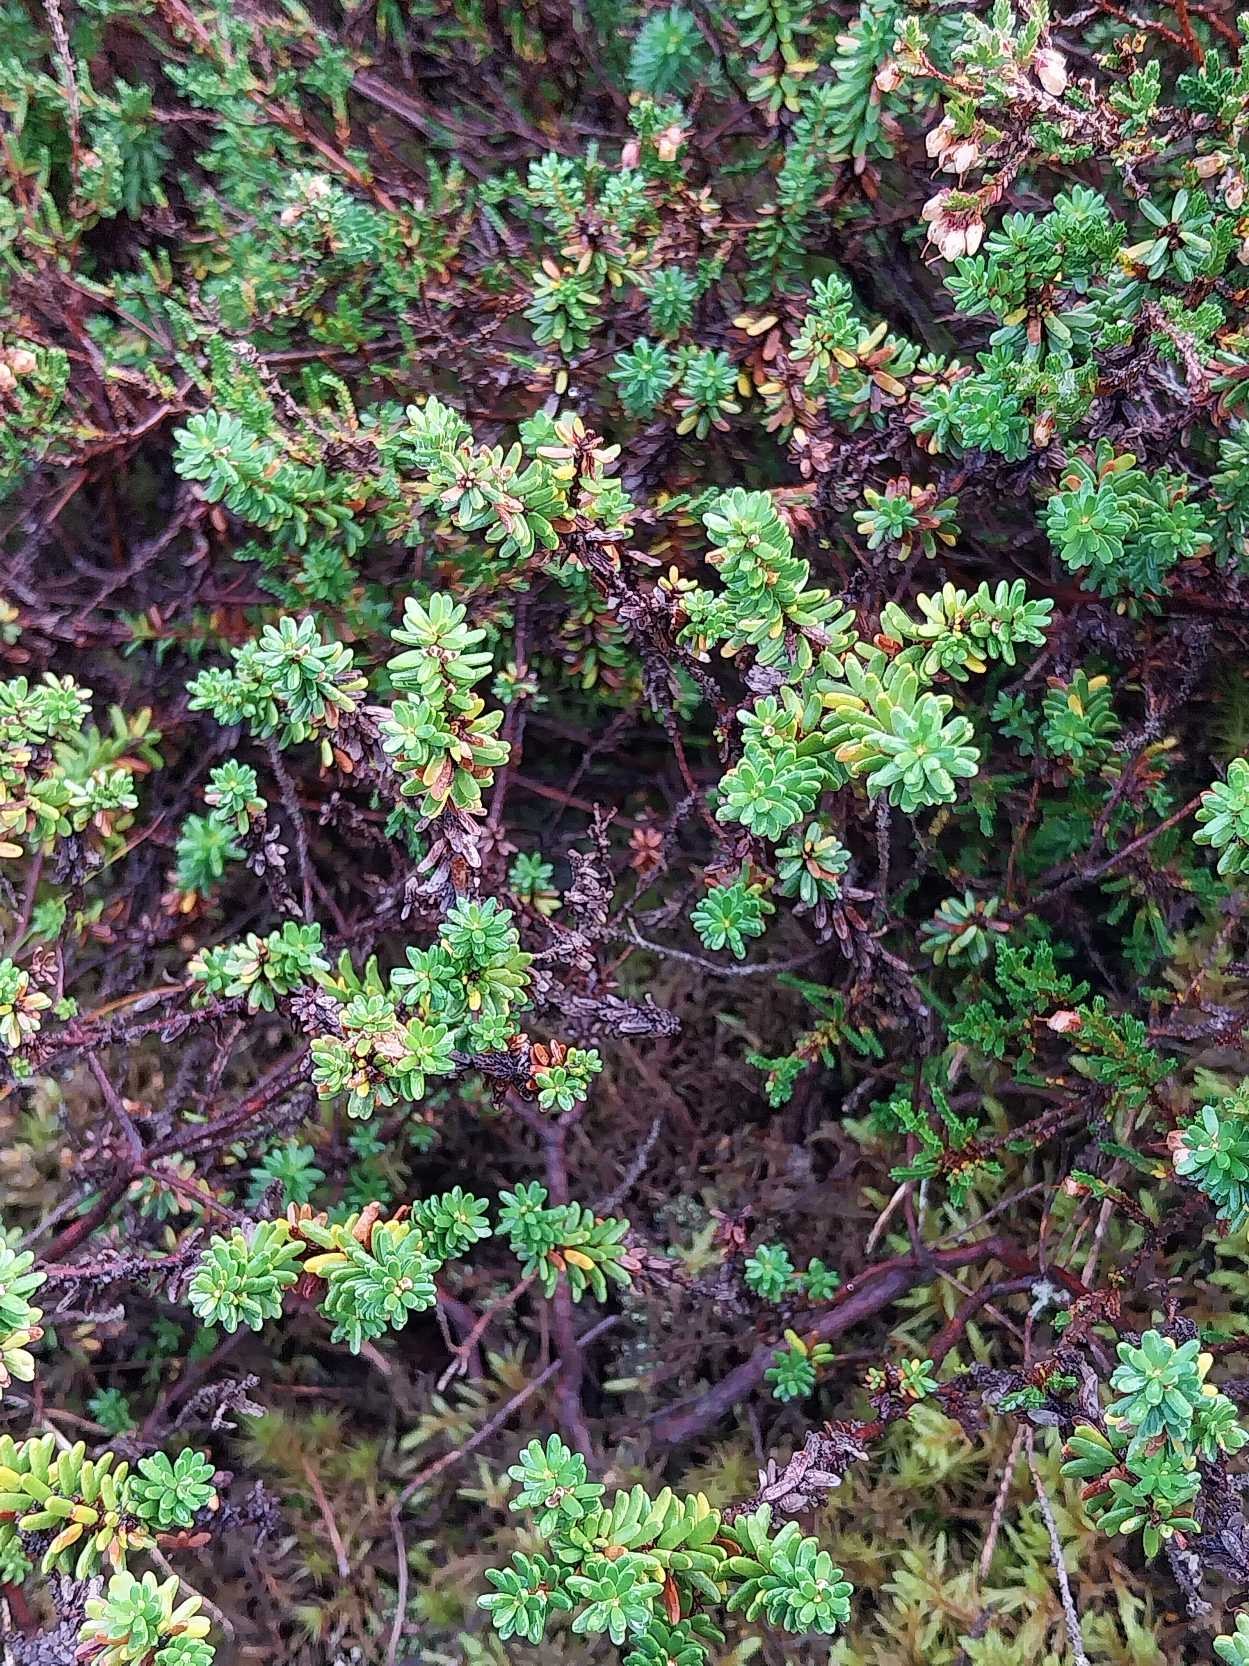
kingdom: Plantae
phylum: Tracheophyta
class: Magnoliopsida
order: Ericales
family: Ericaceae
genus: Empetrum
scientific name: Empetrum nigrum
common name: Revling
